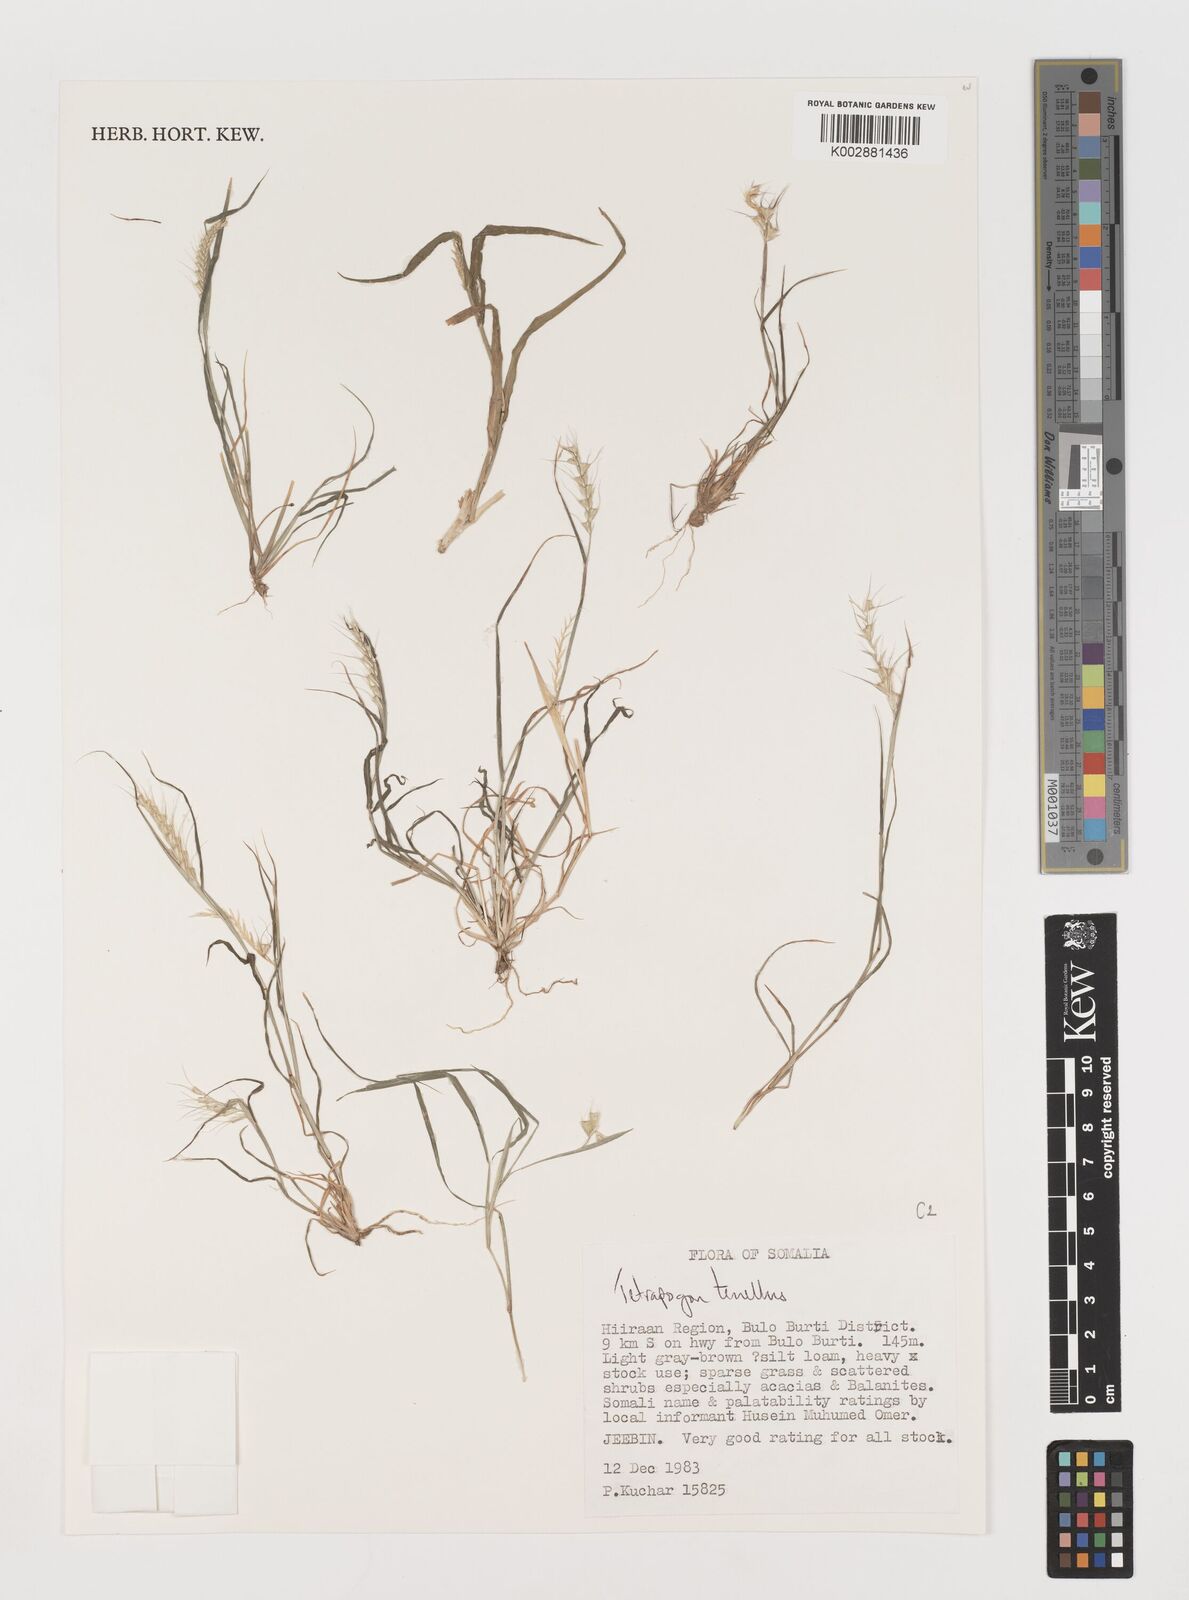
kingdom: Plantae
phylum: Tracheophyta
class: Liliopsida
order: Poales
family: Poaceae
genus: Tetrapogon
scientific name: Tetrapogon tenellus
